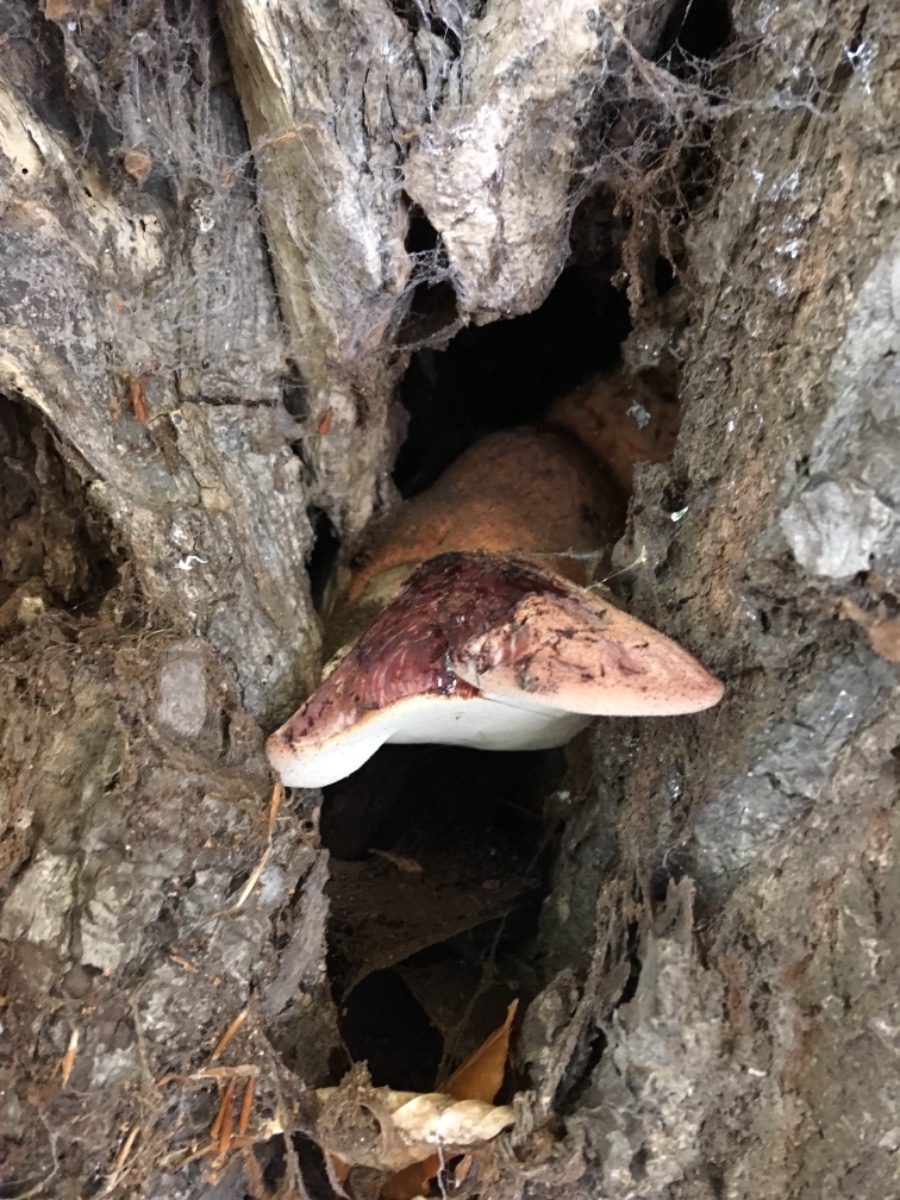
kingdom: Fungi
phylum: Basidiomycota
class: Agaricomycetes
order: Agaricales
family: Fistulinaceae
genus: Fistulina
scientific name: Fistulina hepatica
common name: oksetunge
